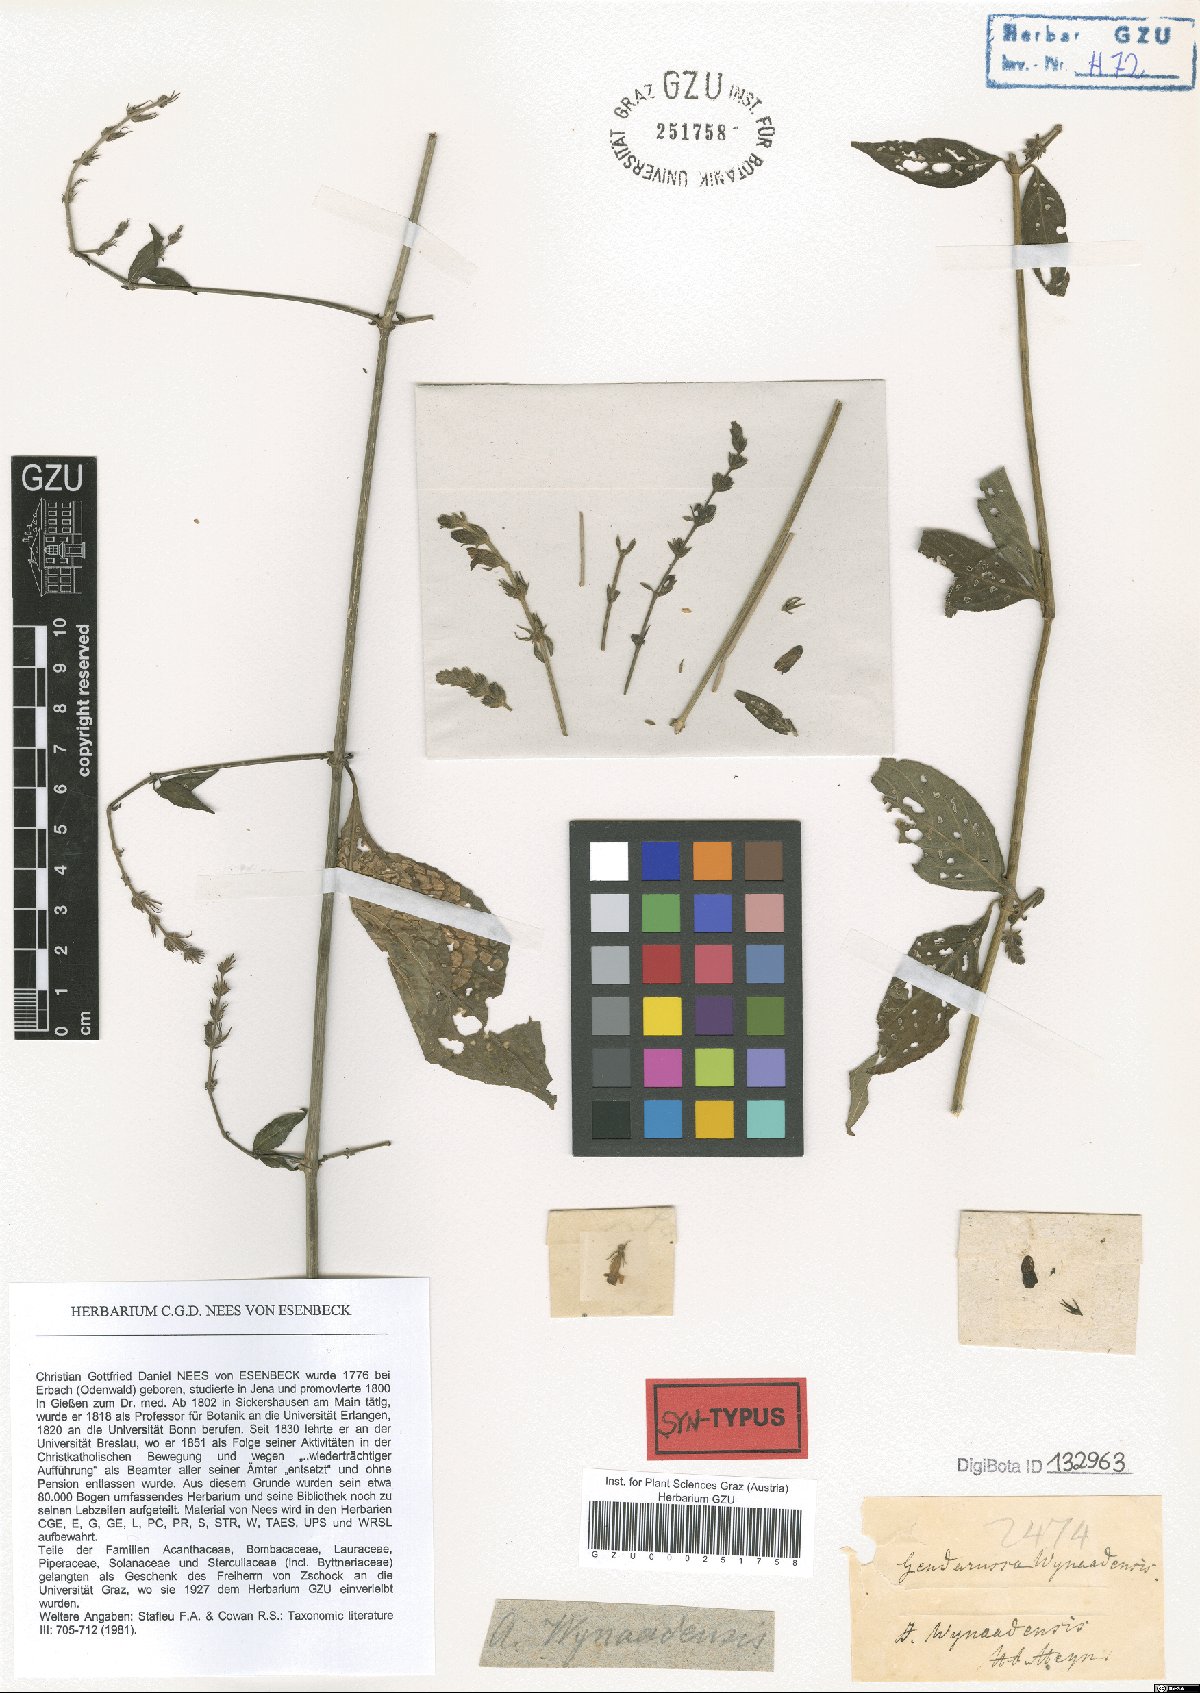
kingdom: Plantae
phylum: Tracheophyta
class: Magnoliopsida
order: Lamiales
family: Acanthaceae
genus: Justicia
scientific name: Justicia wynaadensis
